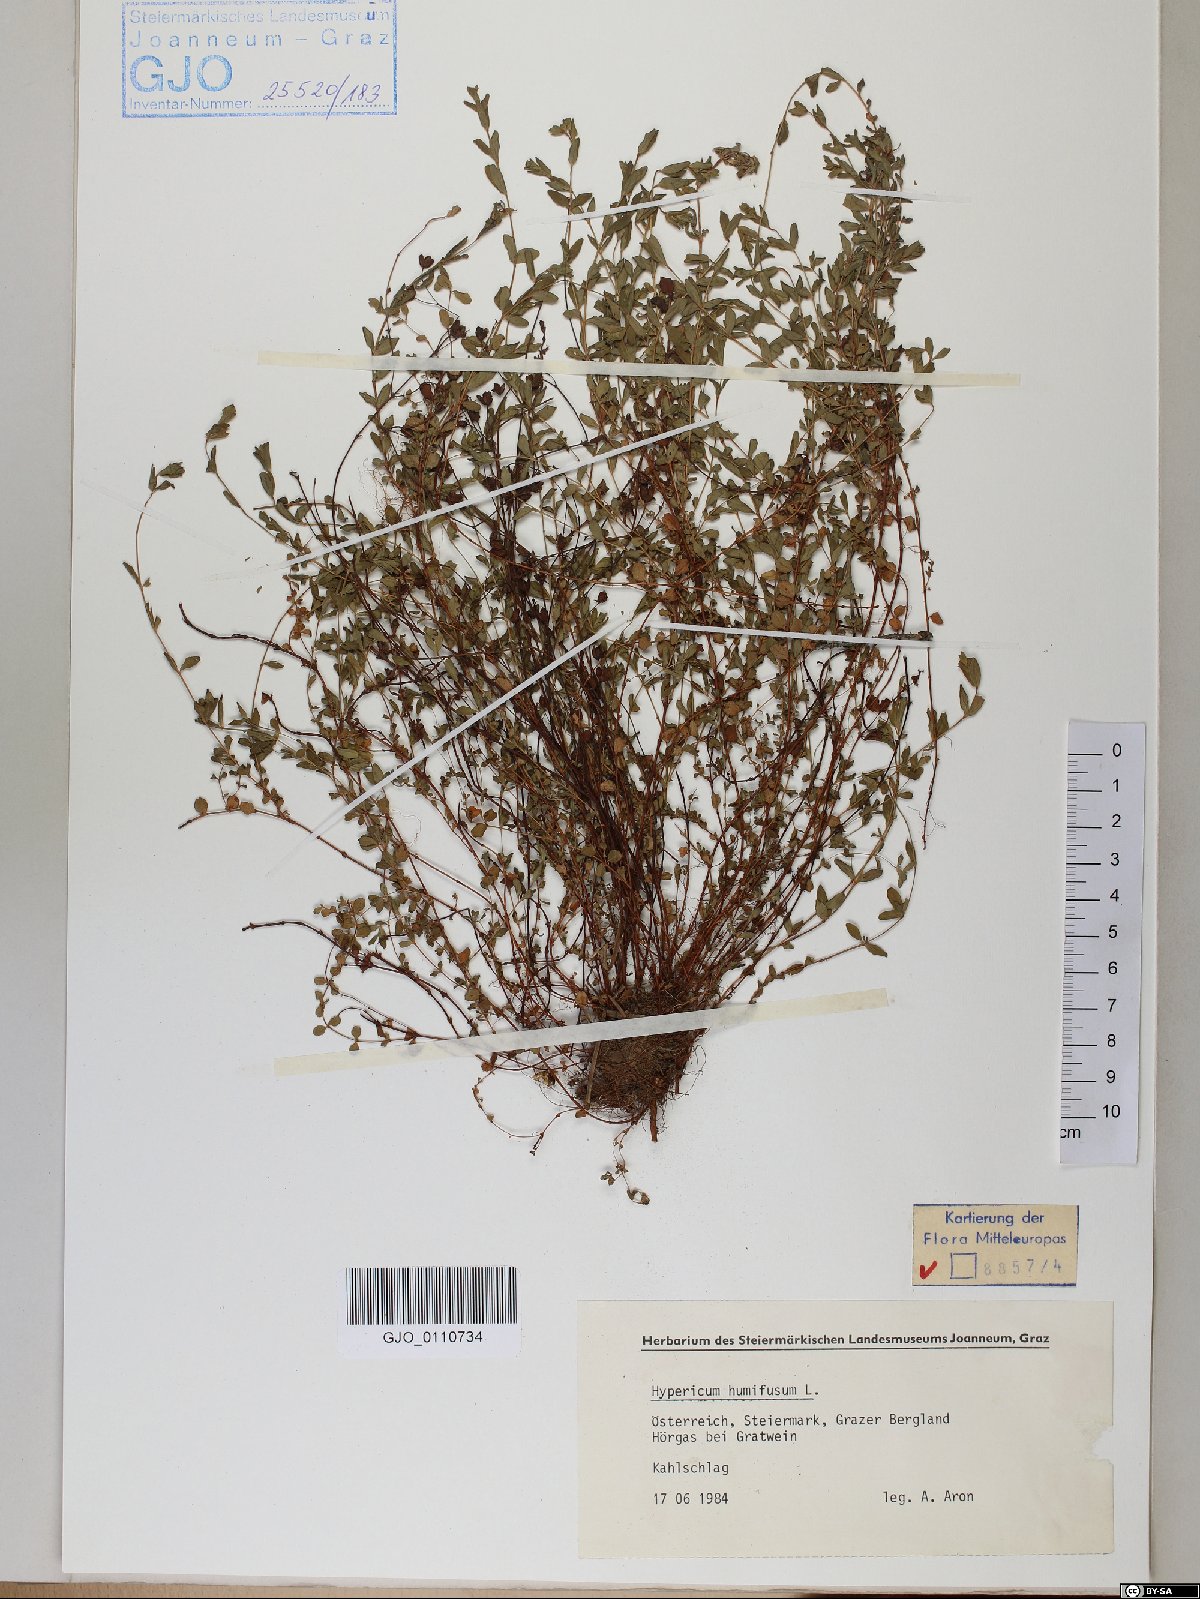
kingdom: Plantae
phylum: Tracheophyta
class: Magnoliopsida
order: Malpighiales
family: Hypericaceae
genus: Hypericum
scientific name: Hypericum humifusum
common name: Trailing st. john's-wort
